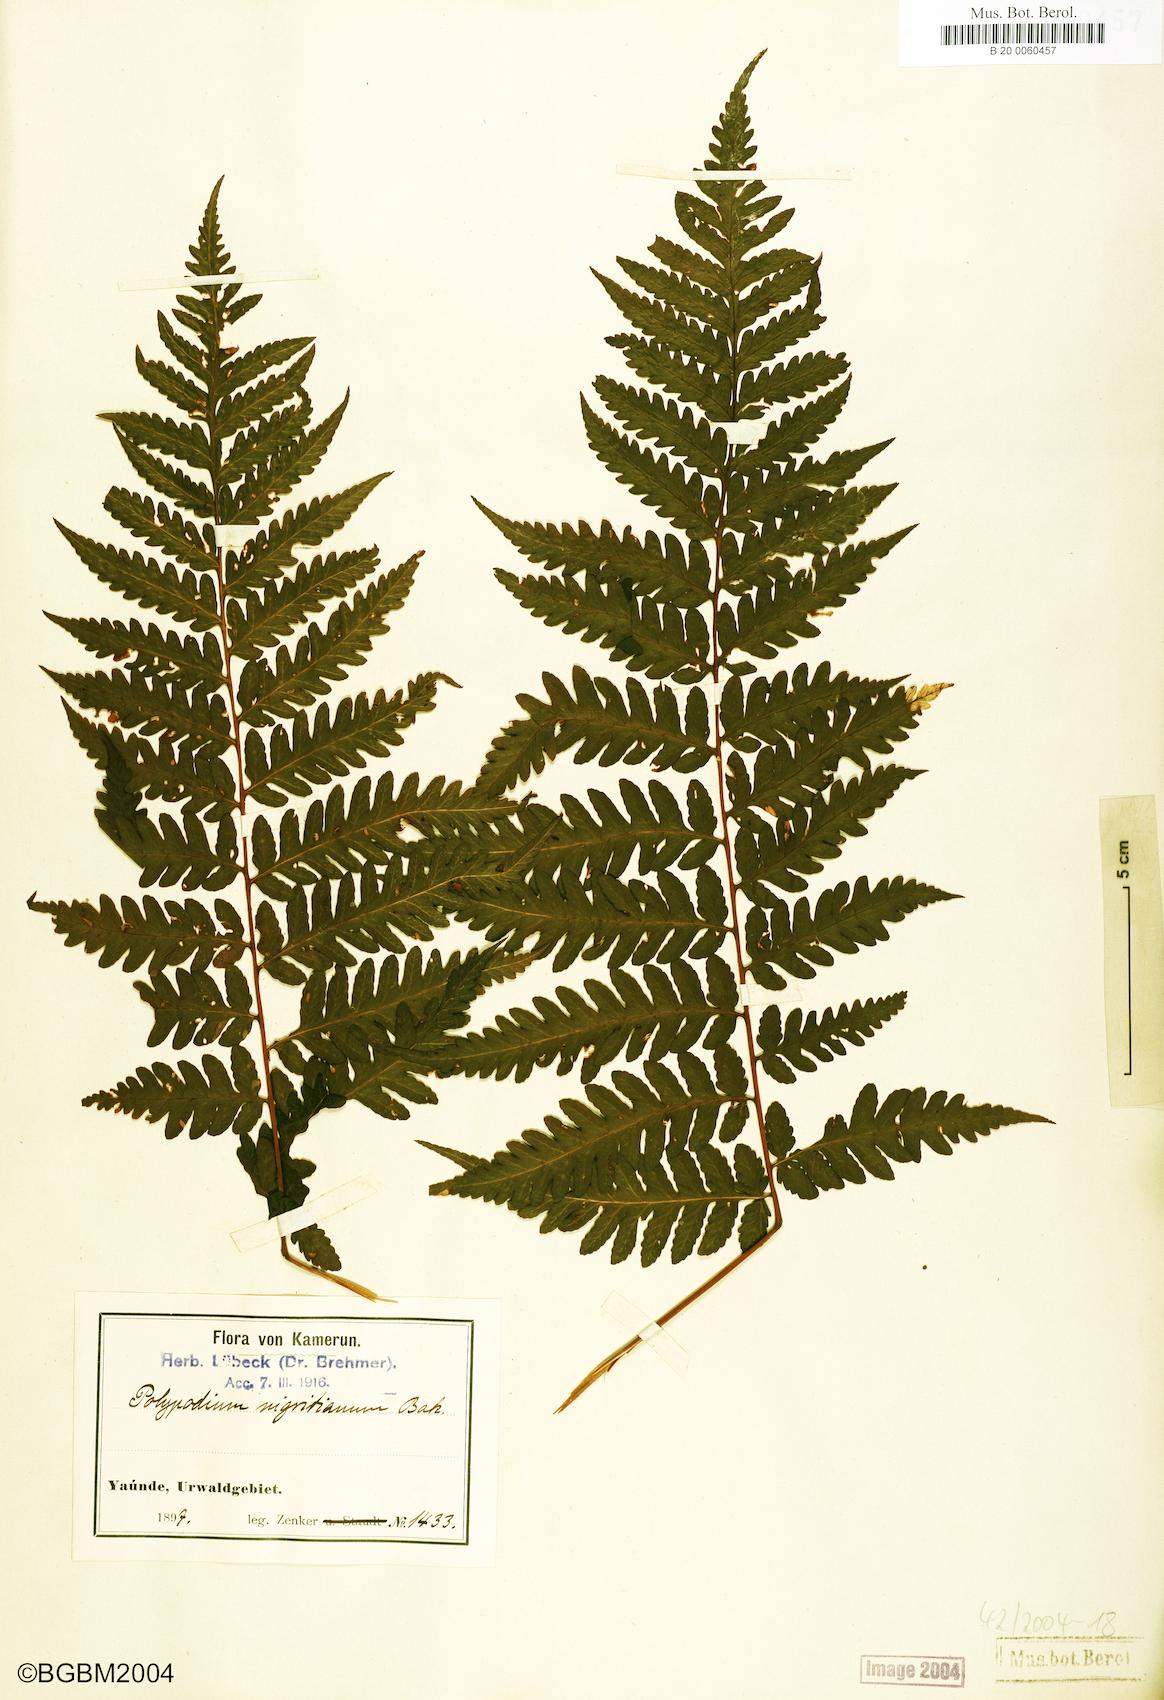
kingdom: Plantae
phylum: Tracheophyta
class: Polypodiopsida
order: Polypodiales
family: Dryopteridaceae
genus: Parapolystichum
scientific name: Parapolystichum nigritianum
